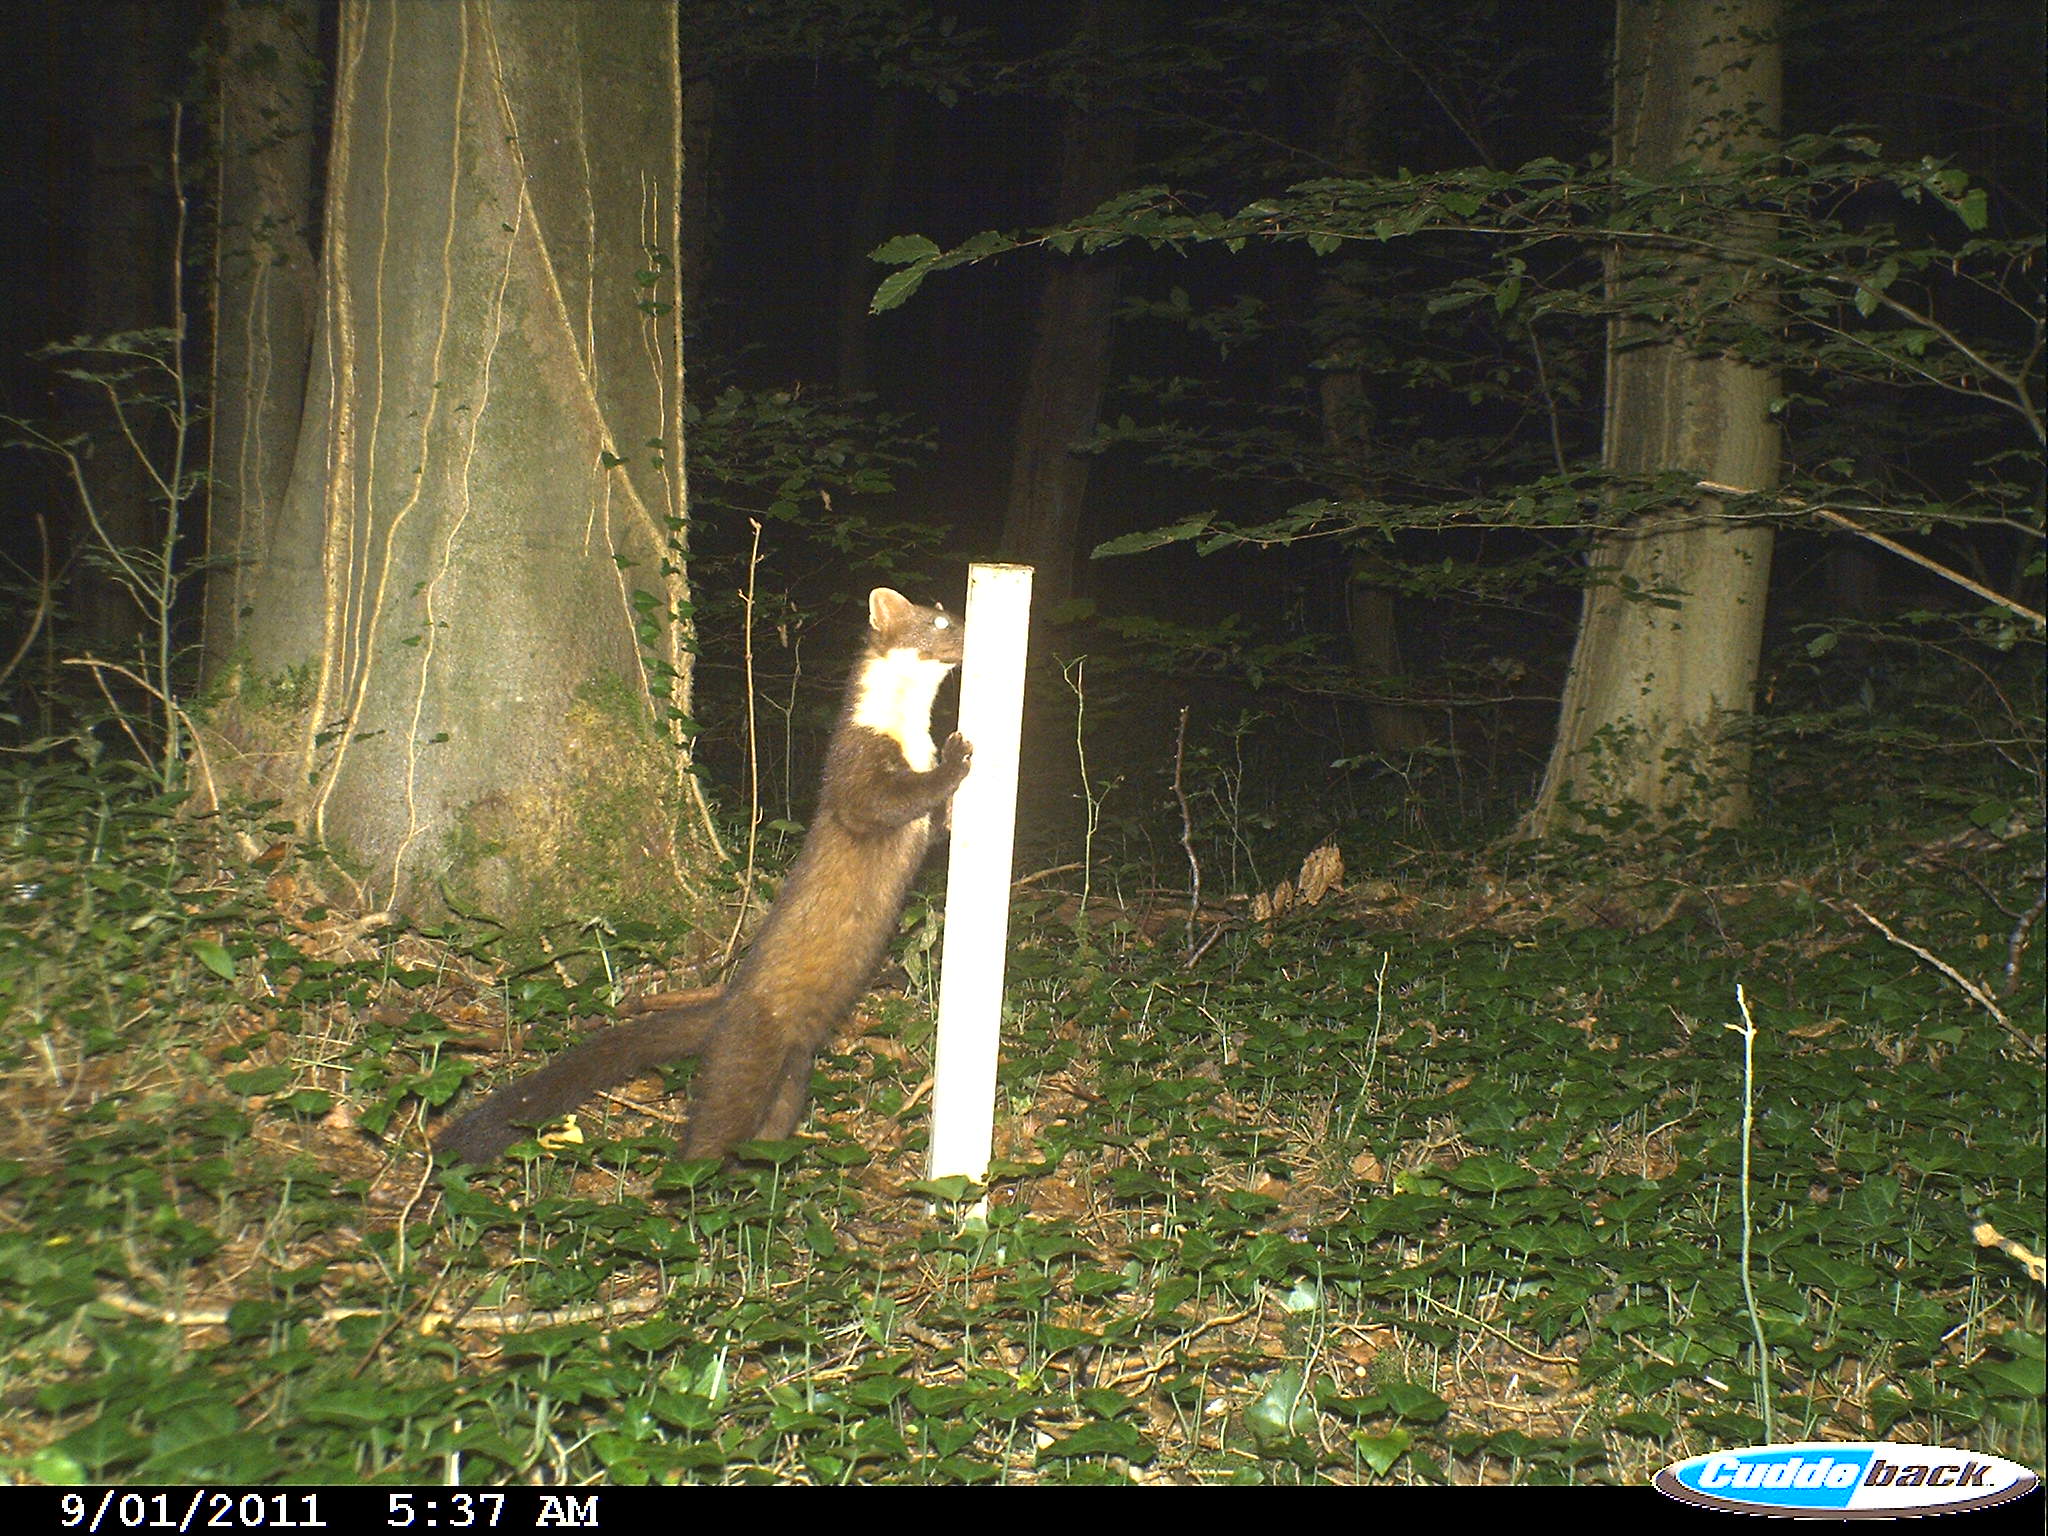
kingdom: Animalia
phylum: Chordata
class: Mammalia
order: Carnivora
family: Mustelidae
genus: Martes
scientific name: Martes
